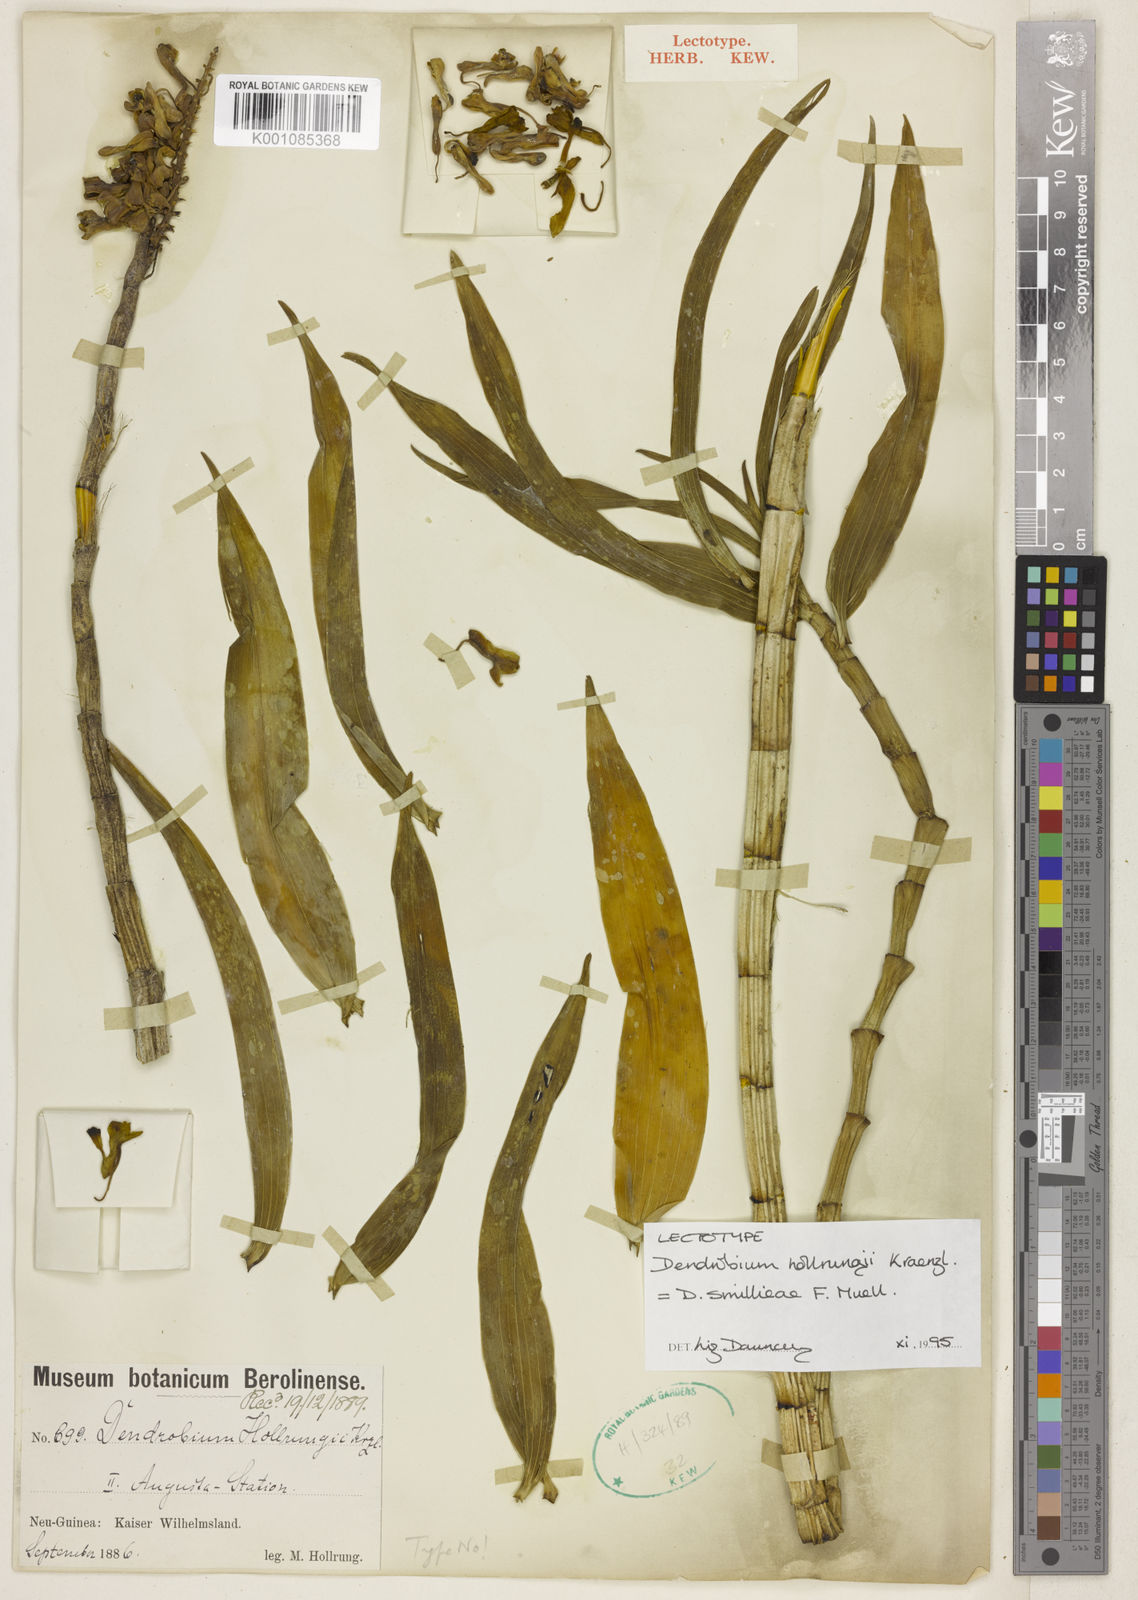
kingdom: Plantae
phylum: Tracheophyta
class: Liliopsida
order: Asparagales
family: Orchidaceae
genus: Dendrobium
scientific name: Dendrobium smillieae
